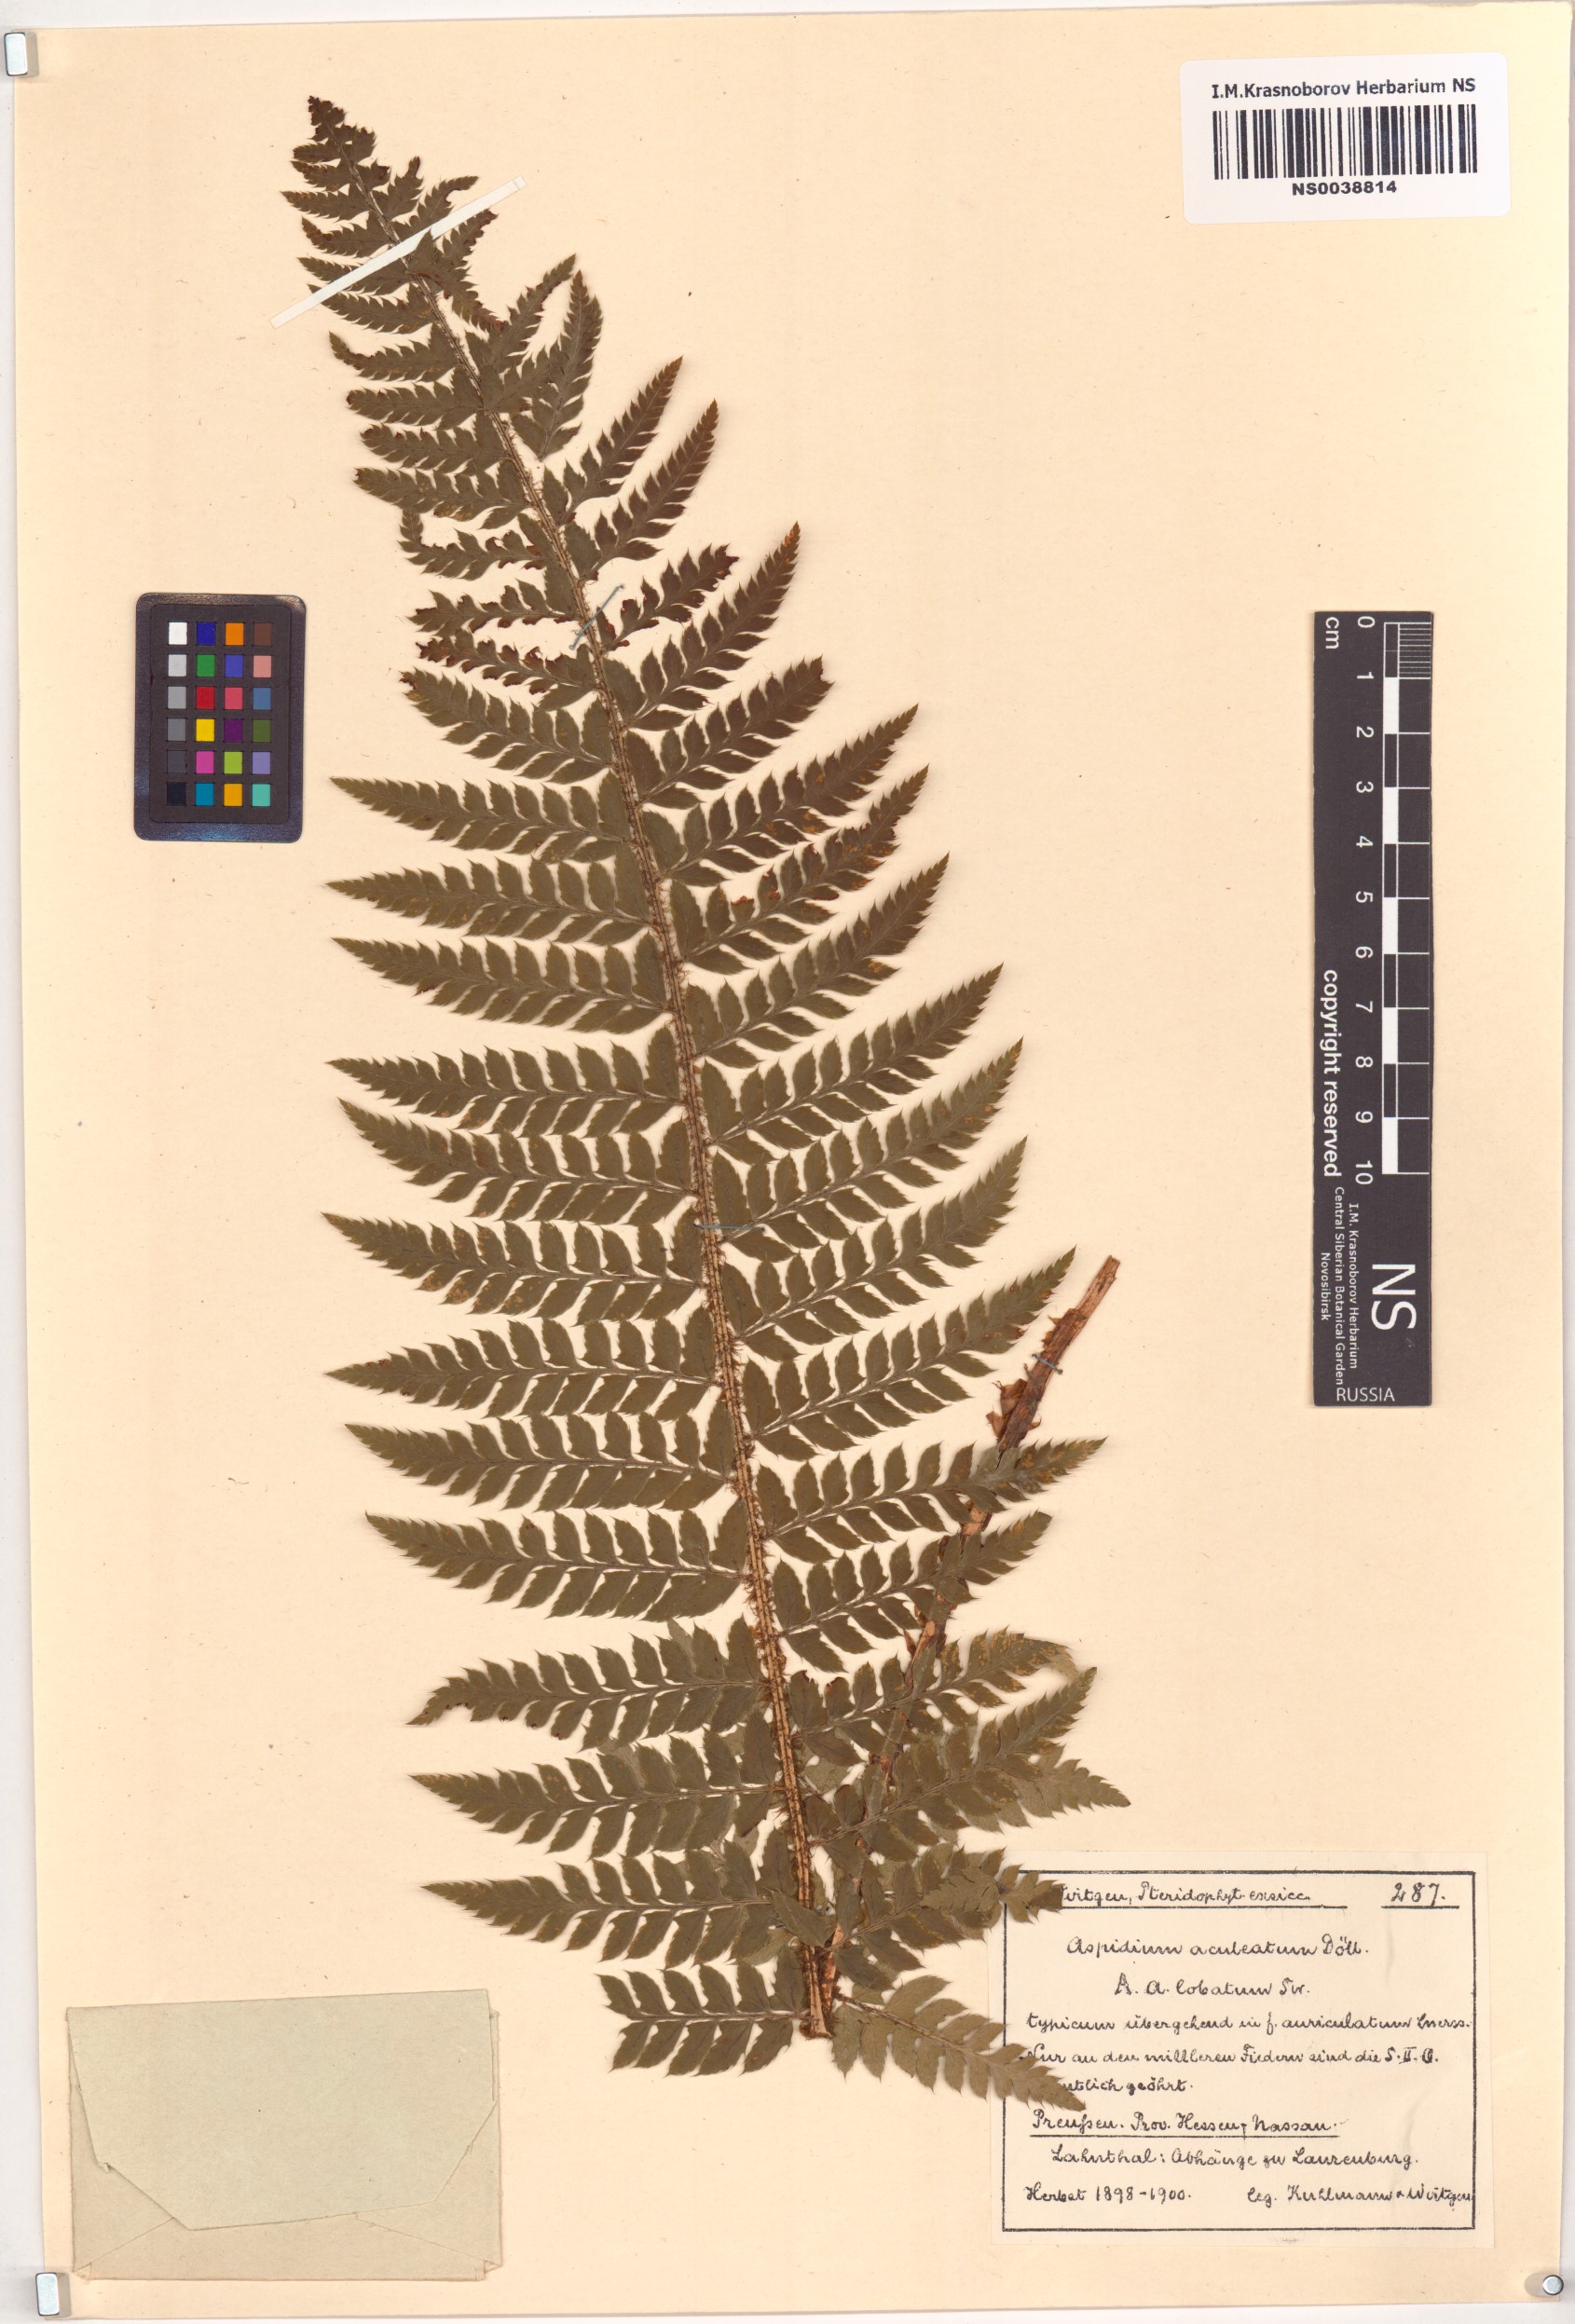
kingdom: Plantae
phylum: Tracheophyta
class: Polypodiopsida
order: Polypodiales
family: Dryopteridaceae
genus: Polystichum
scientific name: Polystichum aculeatum
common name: Hard shield-fern
